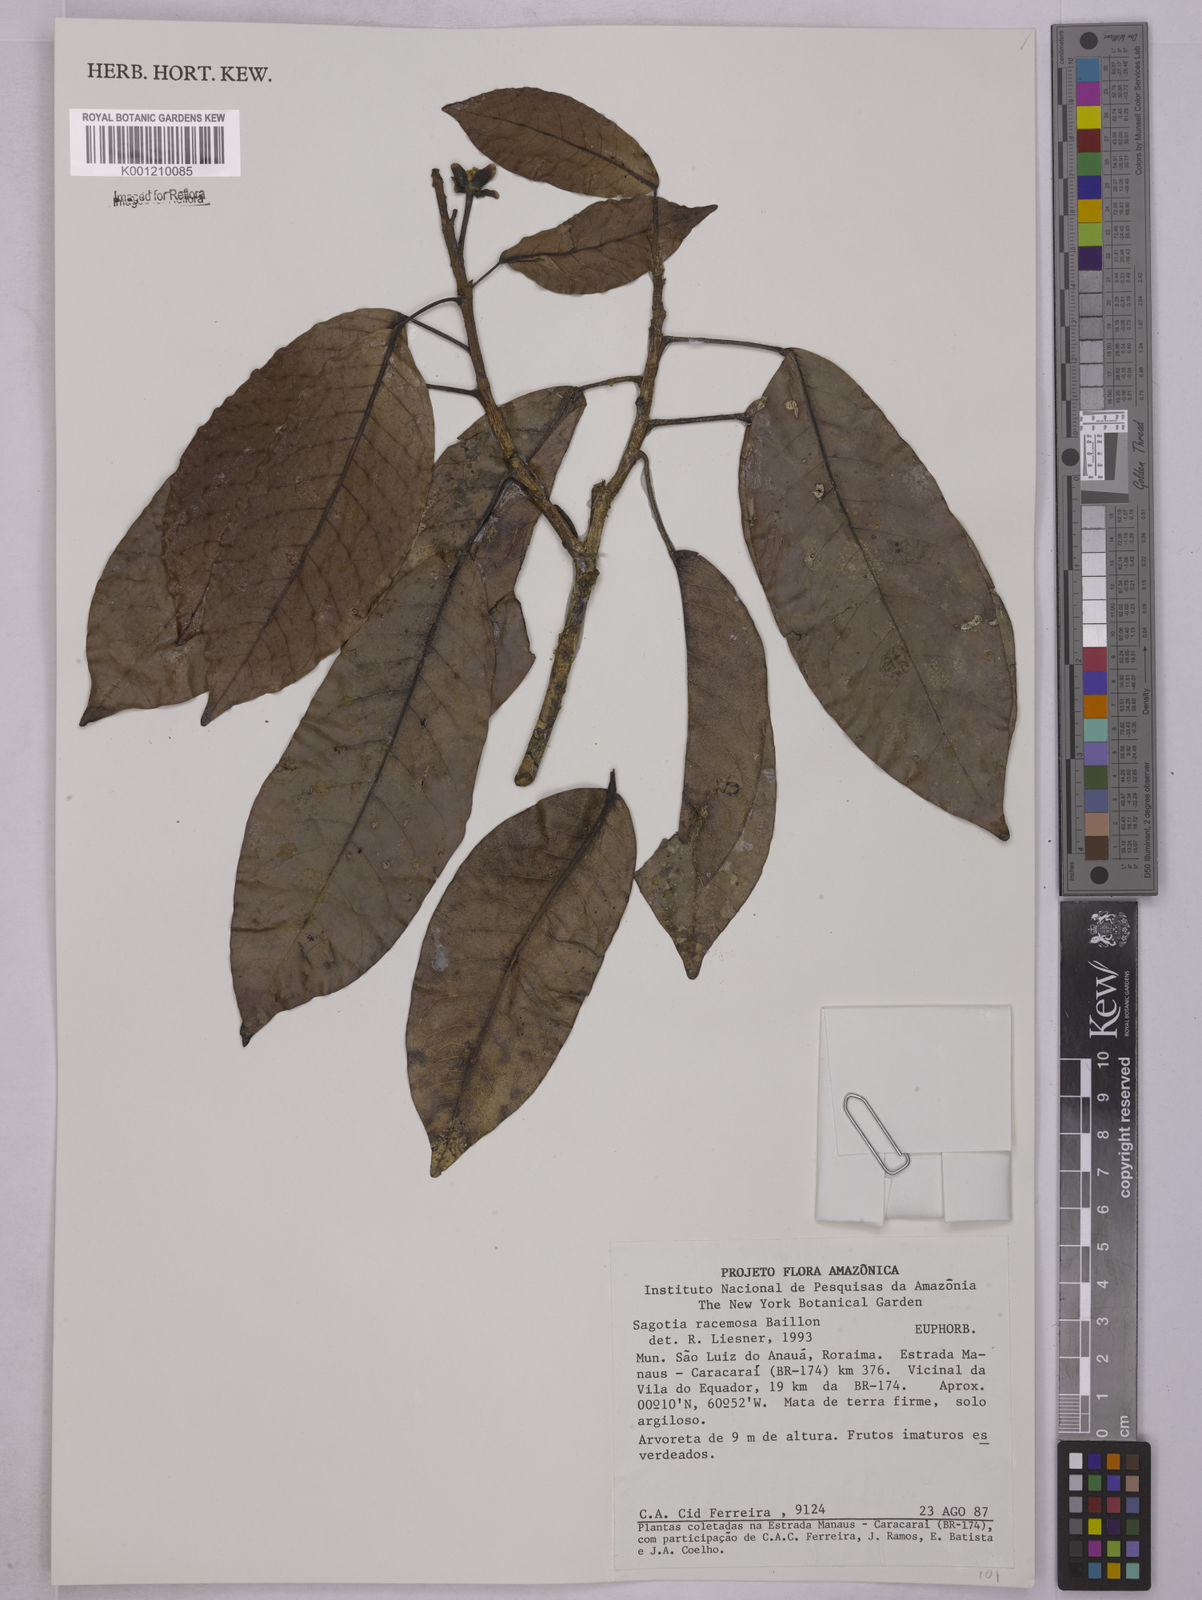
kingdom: Plantae
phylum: Tracheophyta
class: Magnoliopsida
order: Malpighiales
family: Euphorbiaceae
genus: Sagotia
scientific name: Sagotia racemosa
